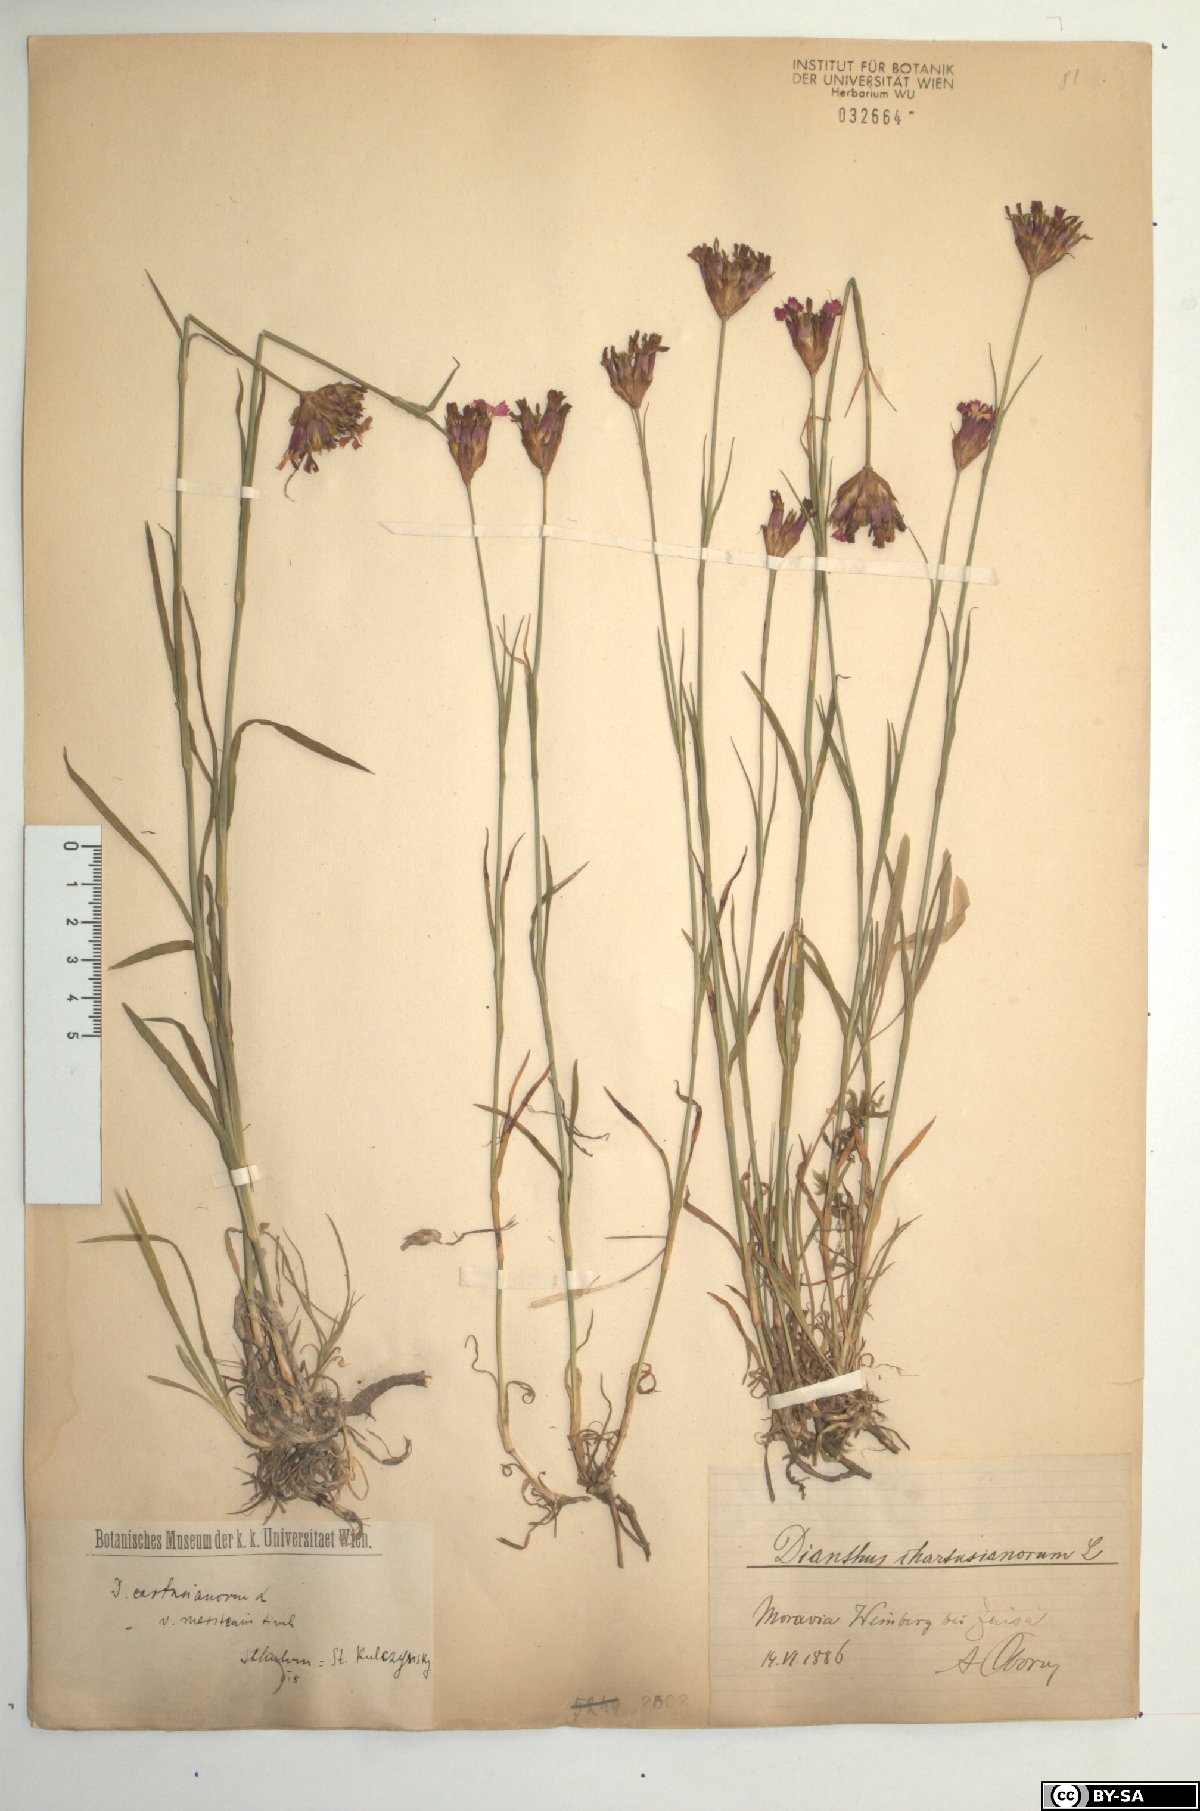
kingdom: Plantae
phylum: Tracheophyta
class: Magnoliopsida
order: Caryophyllales
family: Caryophyllaceae
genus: Dianthus
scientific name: Dianthus carthusianorum
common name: Carthusian pink
